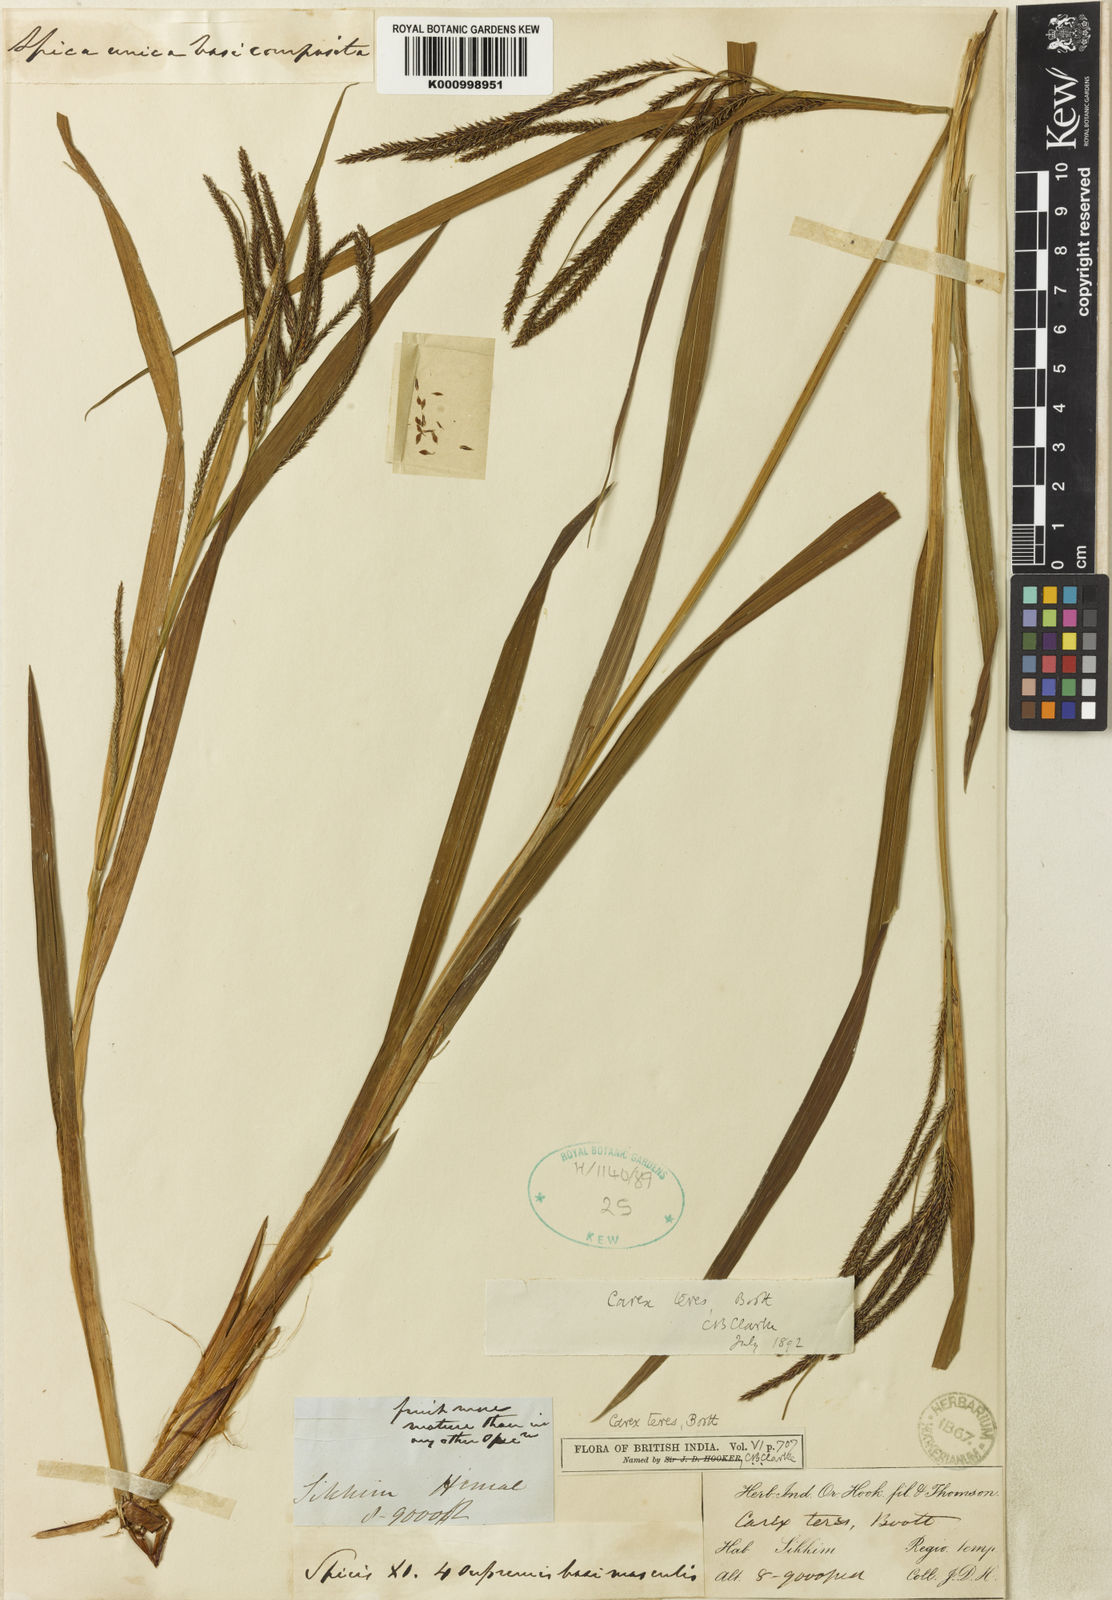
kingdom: Plantae
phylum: Tracheophyta
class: Liliopsida
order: Poales
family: Cyperaceae
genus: Carex
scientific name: Carex teres
